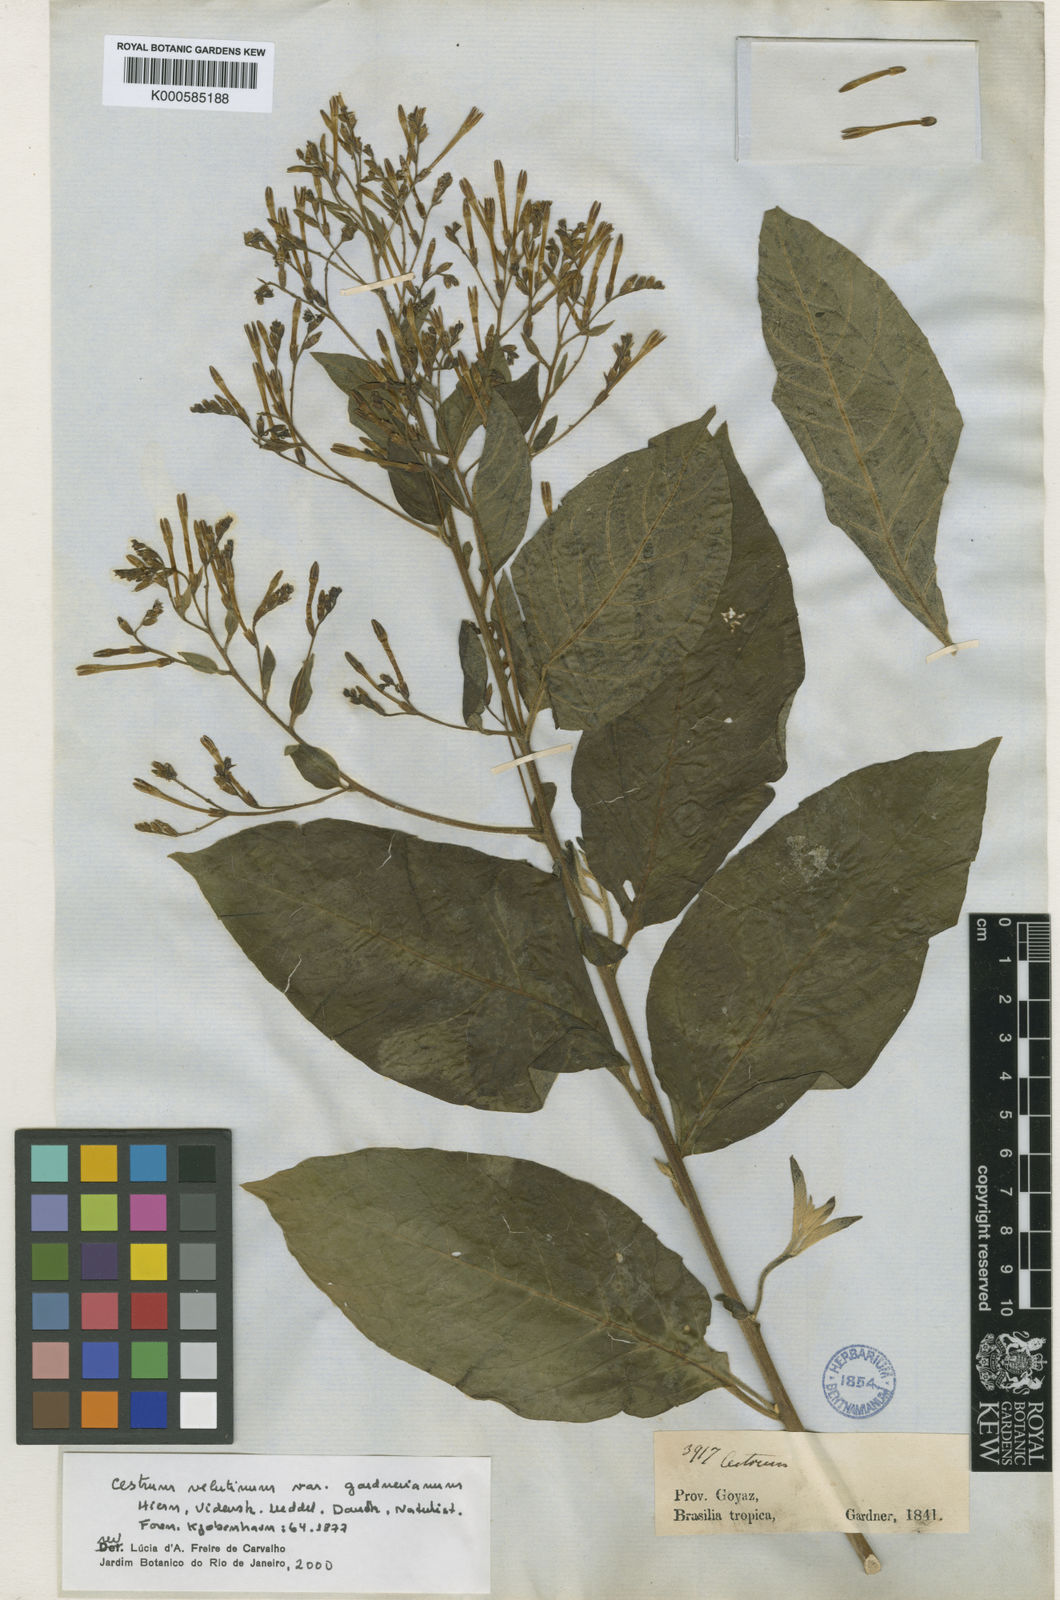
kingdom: Plantae
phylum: Tracheophyta
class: Magnoliopsida
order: Solanales
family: Solanaceae
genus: Cestrum
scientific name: Cestrum velutinum
